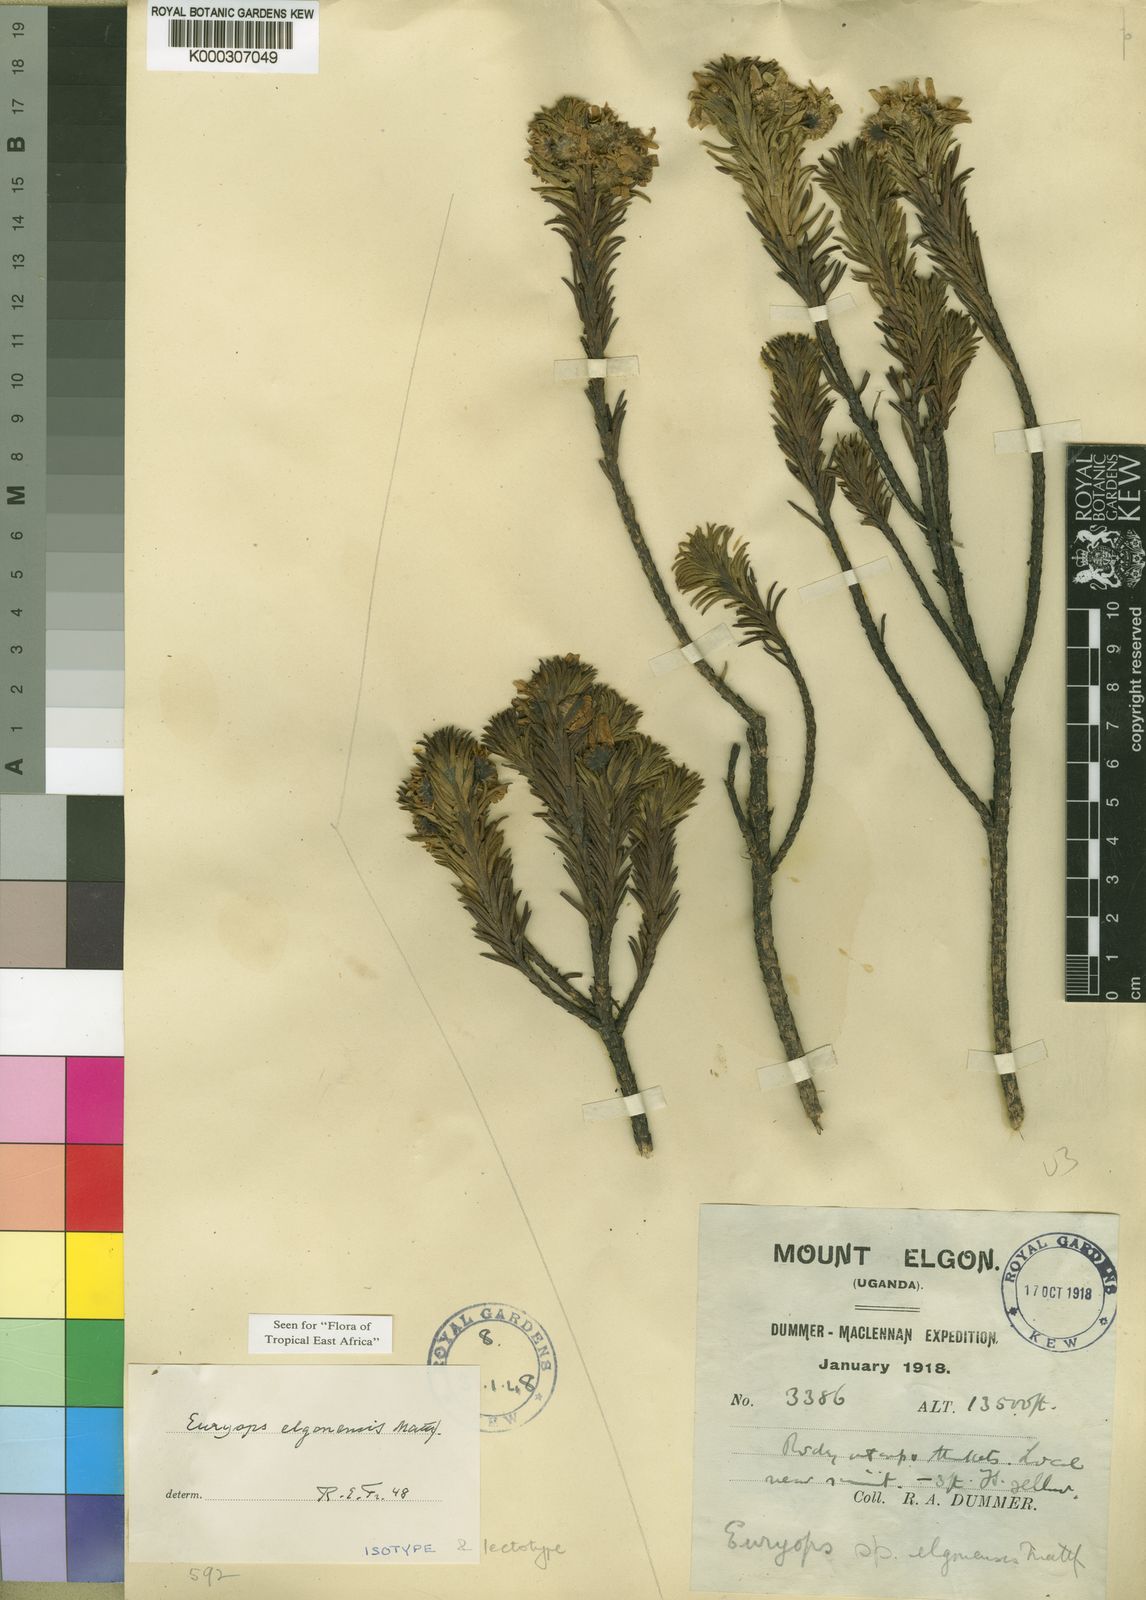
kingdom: Plantae
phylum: Tracheophyta
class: Magnoliopsida
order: Asterales
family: Asteraceae
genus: Euryops
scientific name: Euryops elgonensis
